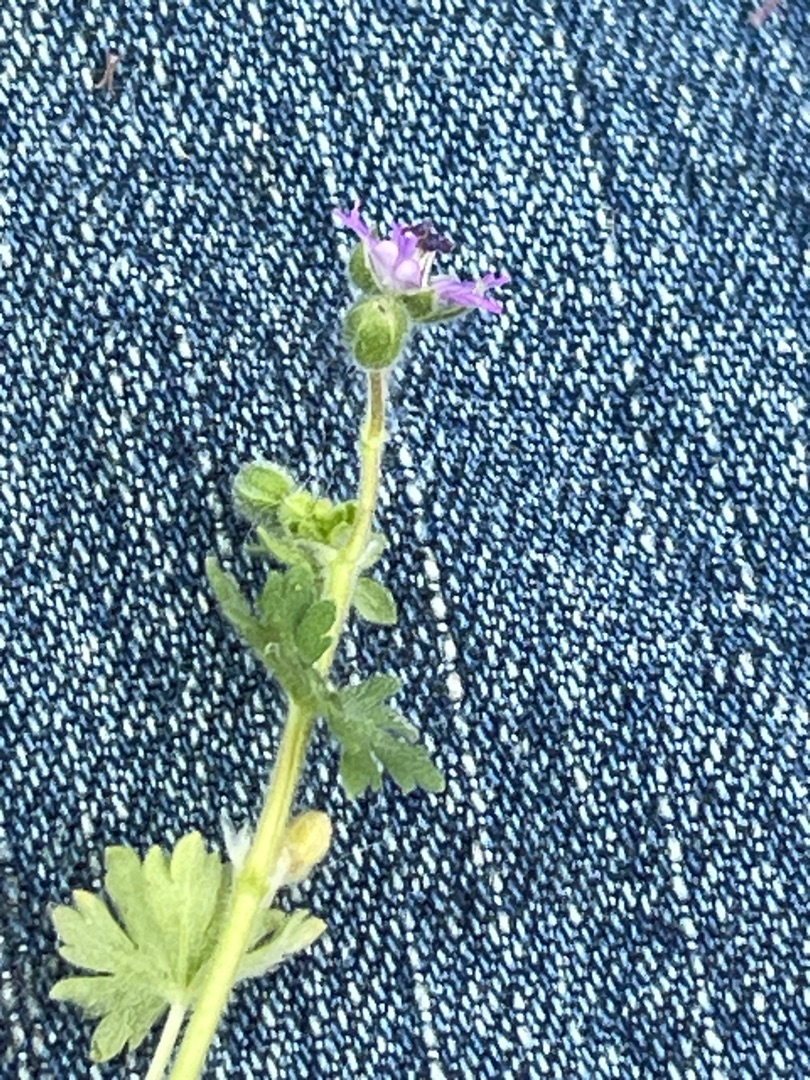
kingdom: Plantae
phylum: Tracheophyta
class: Magnoliopsida
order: Geraniales
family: Geraniaceae
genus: Geranium
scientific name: Geranium molle
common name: Blød storkenæb
